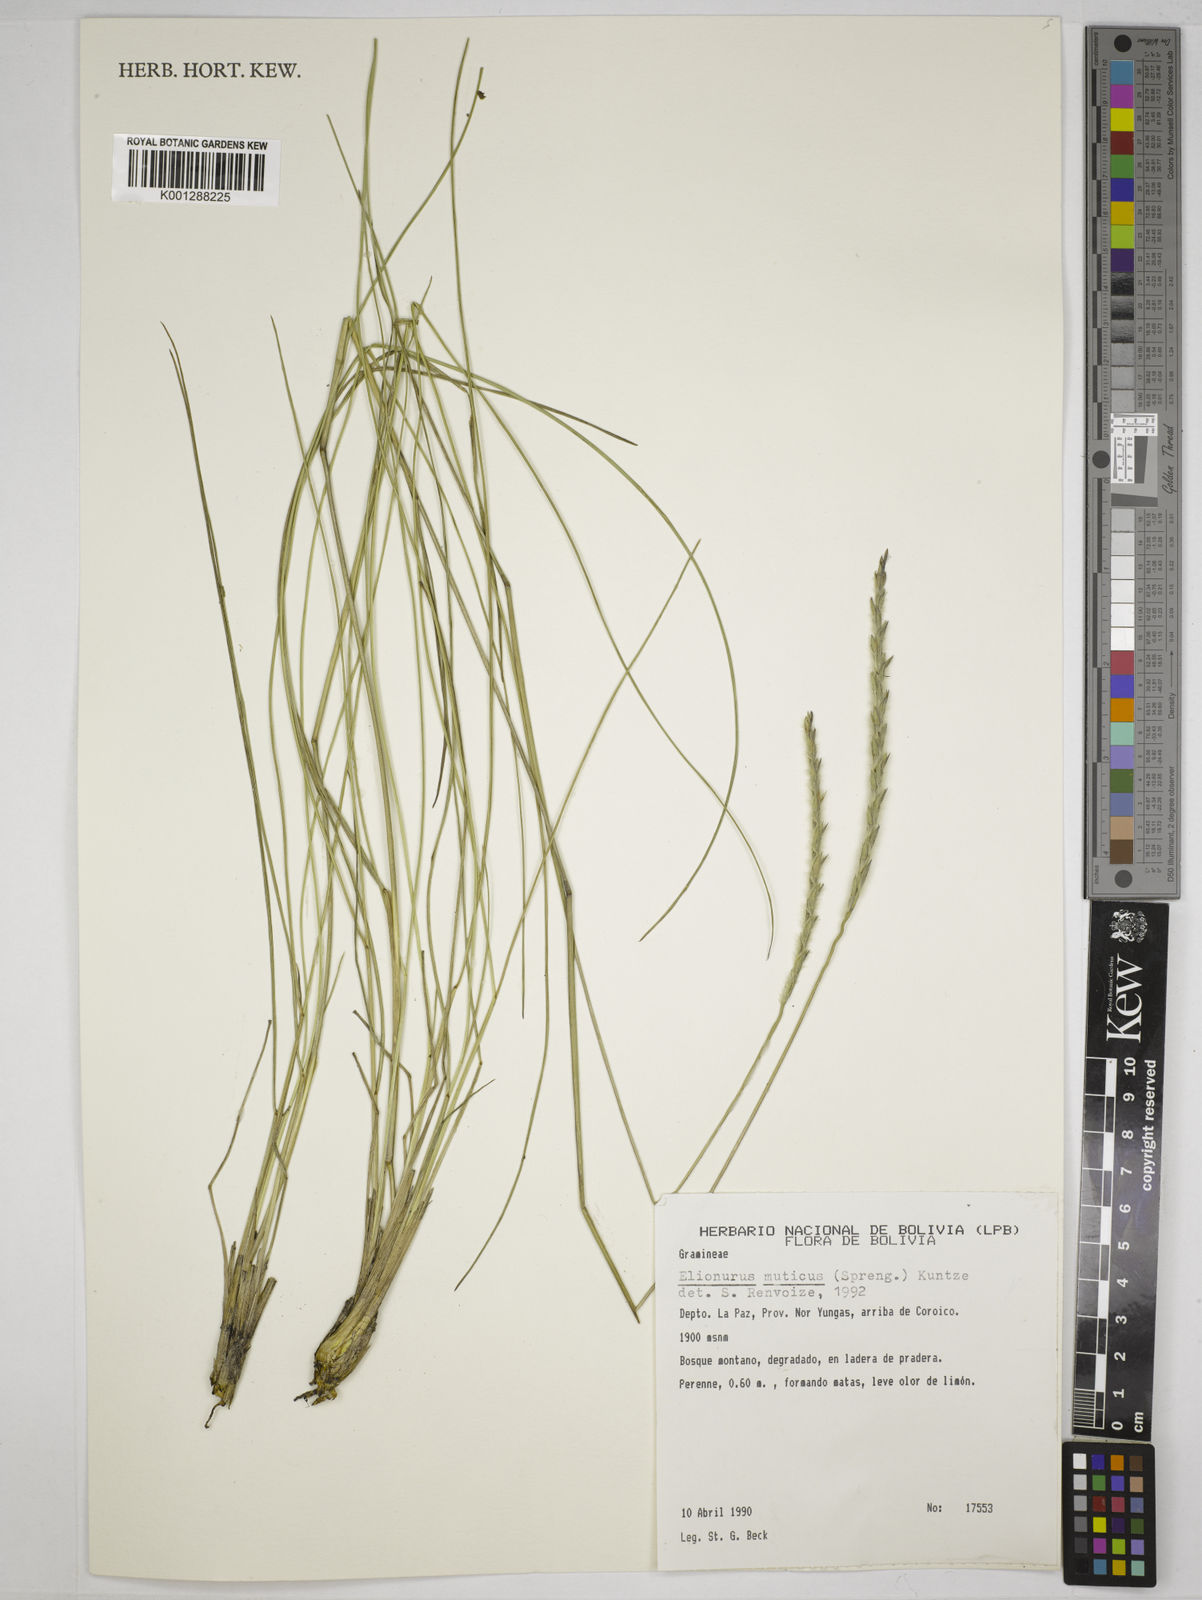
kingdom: Plantae
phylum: Tracheophyta
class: Liliopsida
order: Poales
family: Poaceae
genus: Elionurus
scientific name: Elionurus muticus
